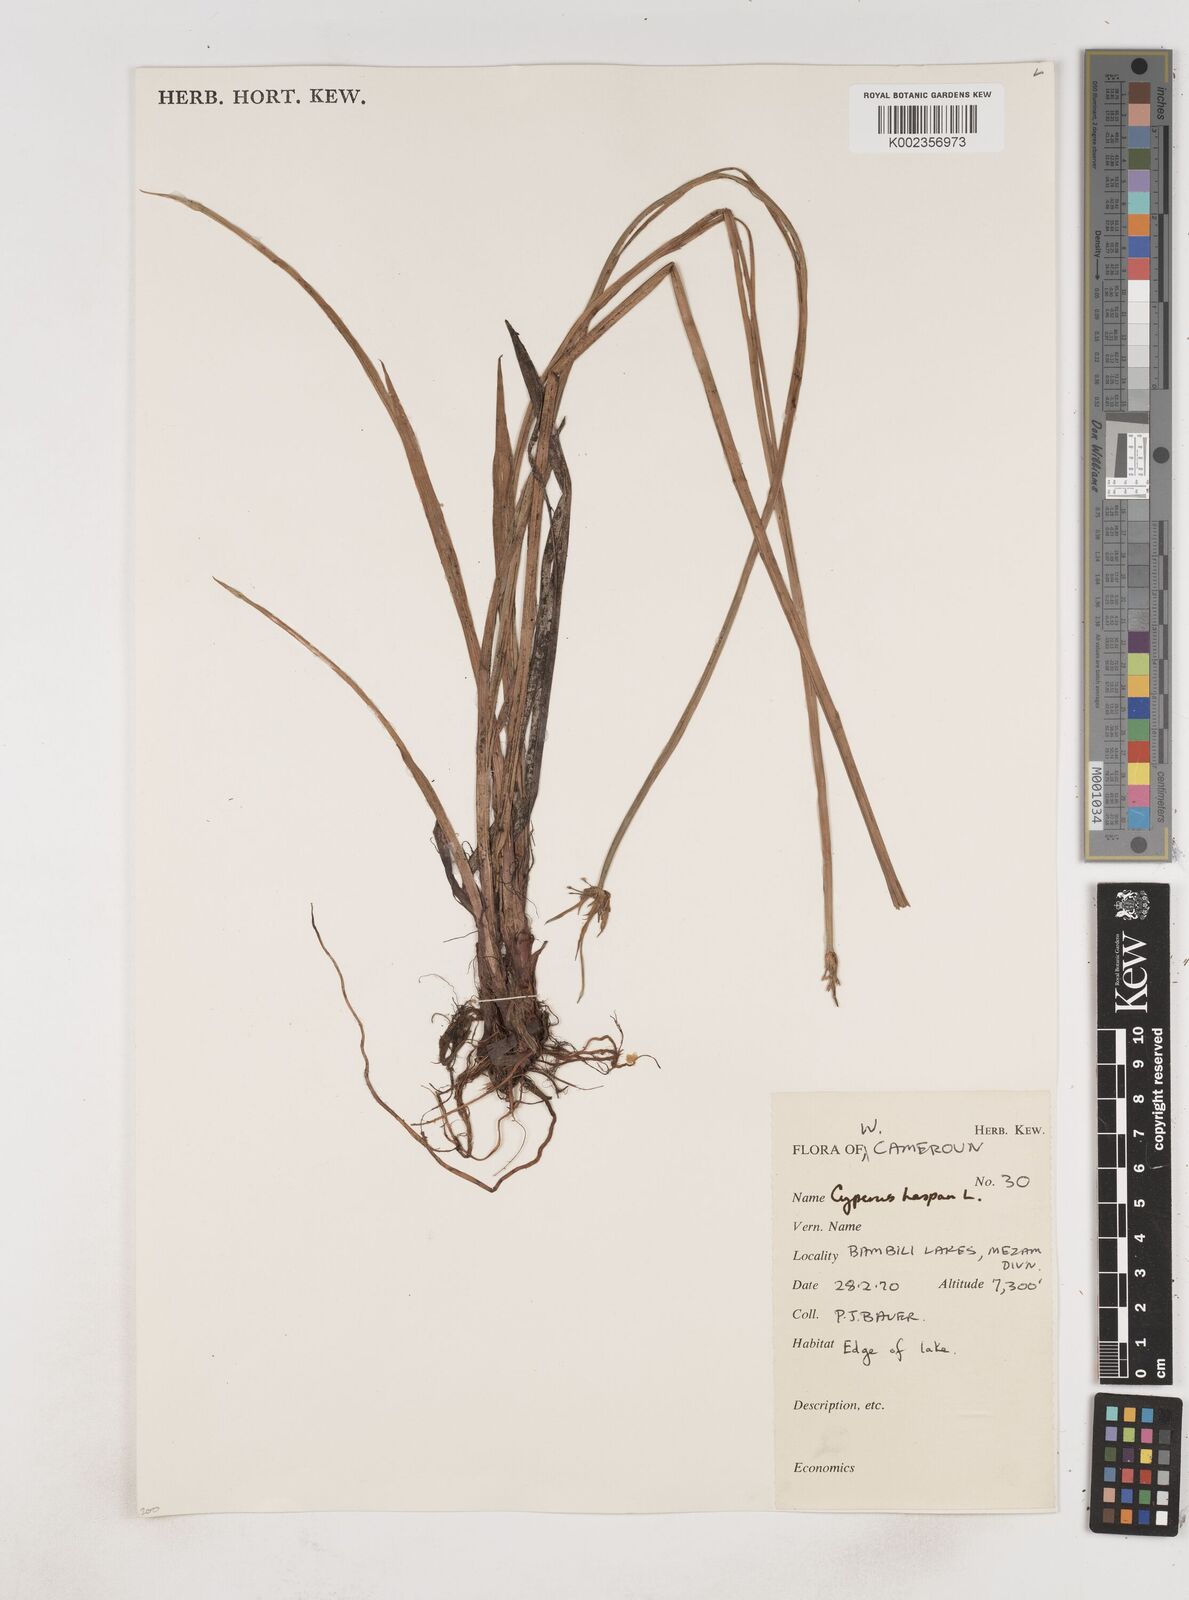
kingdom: Plantae
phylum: Tracheophyta
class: Liliopsida
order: Poales
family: Cyperaceae
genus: Cyperus
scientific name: Cyperus haspan
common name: Haspan flatsedge
